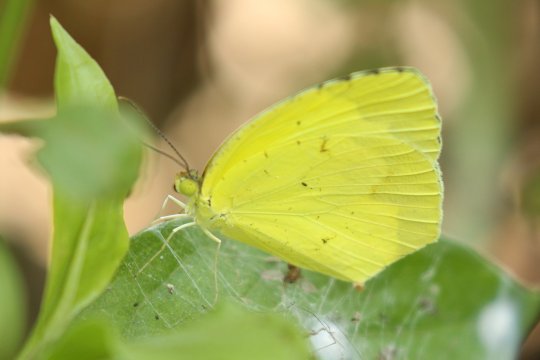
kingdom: Animalia
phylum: Arthropoda
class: Insecta
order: Lepidoptera
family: Pieridae
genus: Eurema
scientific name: Eurema boisduvaliana
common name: Boisduval's Yellow
